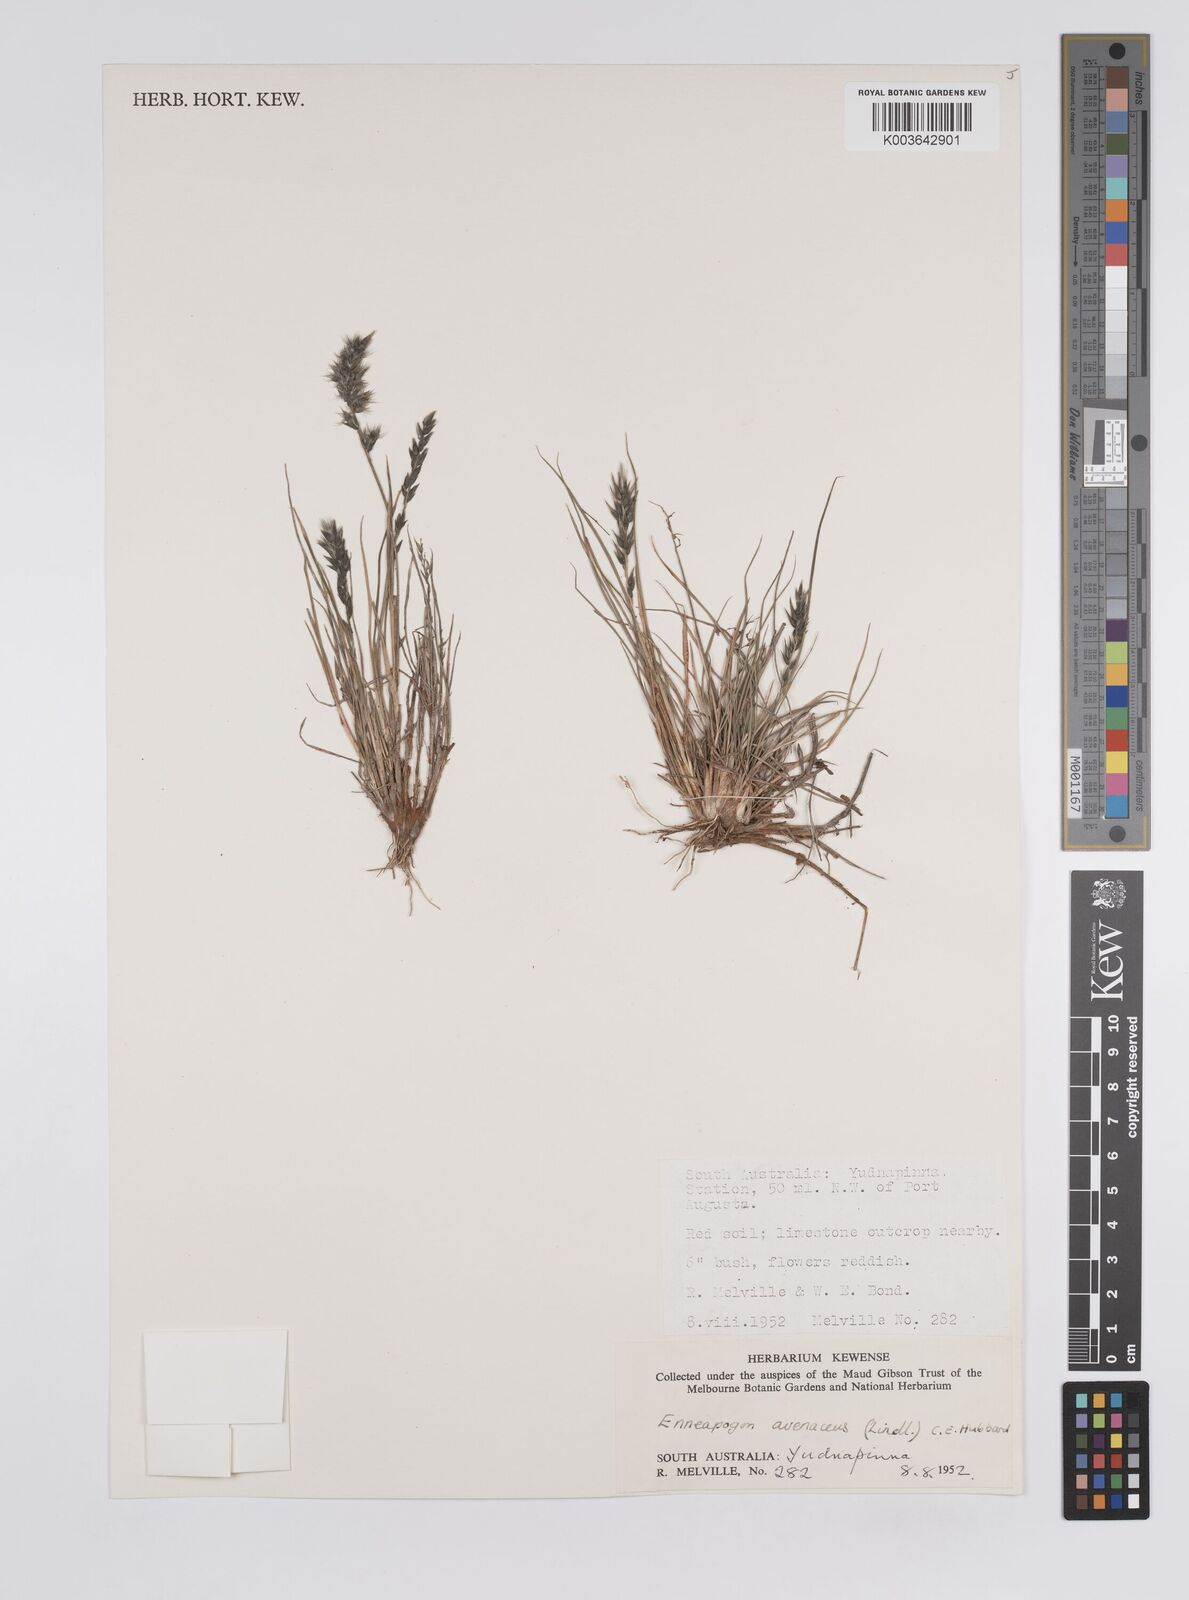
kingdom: Plantae
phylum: Tracheophyta
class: Liliopsida
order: Poales
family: Poaceae
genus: Enneapogon
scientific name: Enneapogon avenaceus
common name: Hairy oat grass
